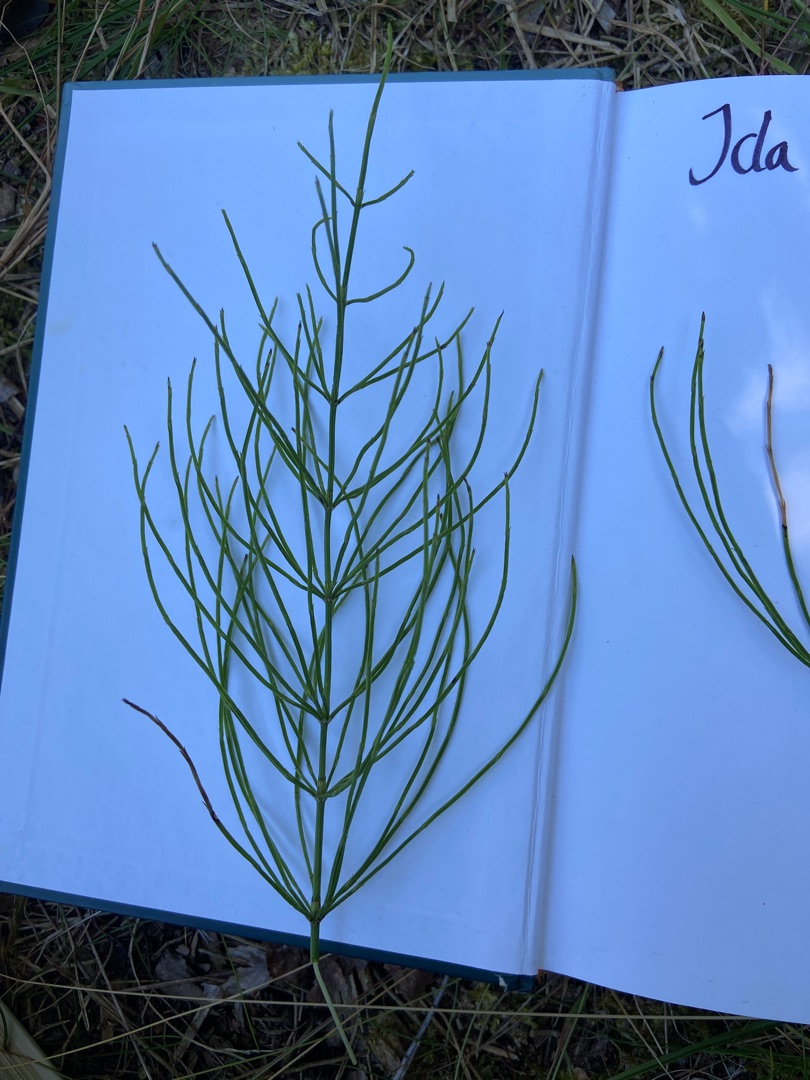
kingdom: Plantae
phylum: Tracheophyta
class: Polypodiopsida
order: Equisetales
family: Equisetaceae
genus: Equisetum
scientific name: Equisetum arvense
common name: Ager-padderok
